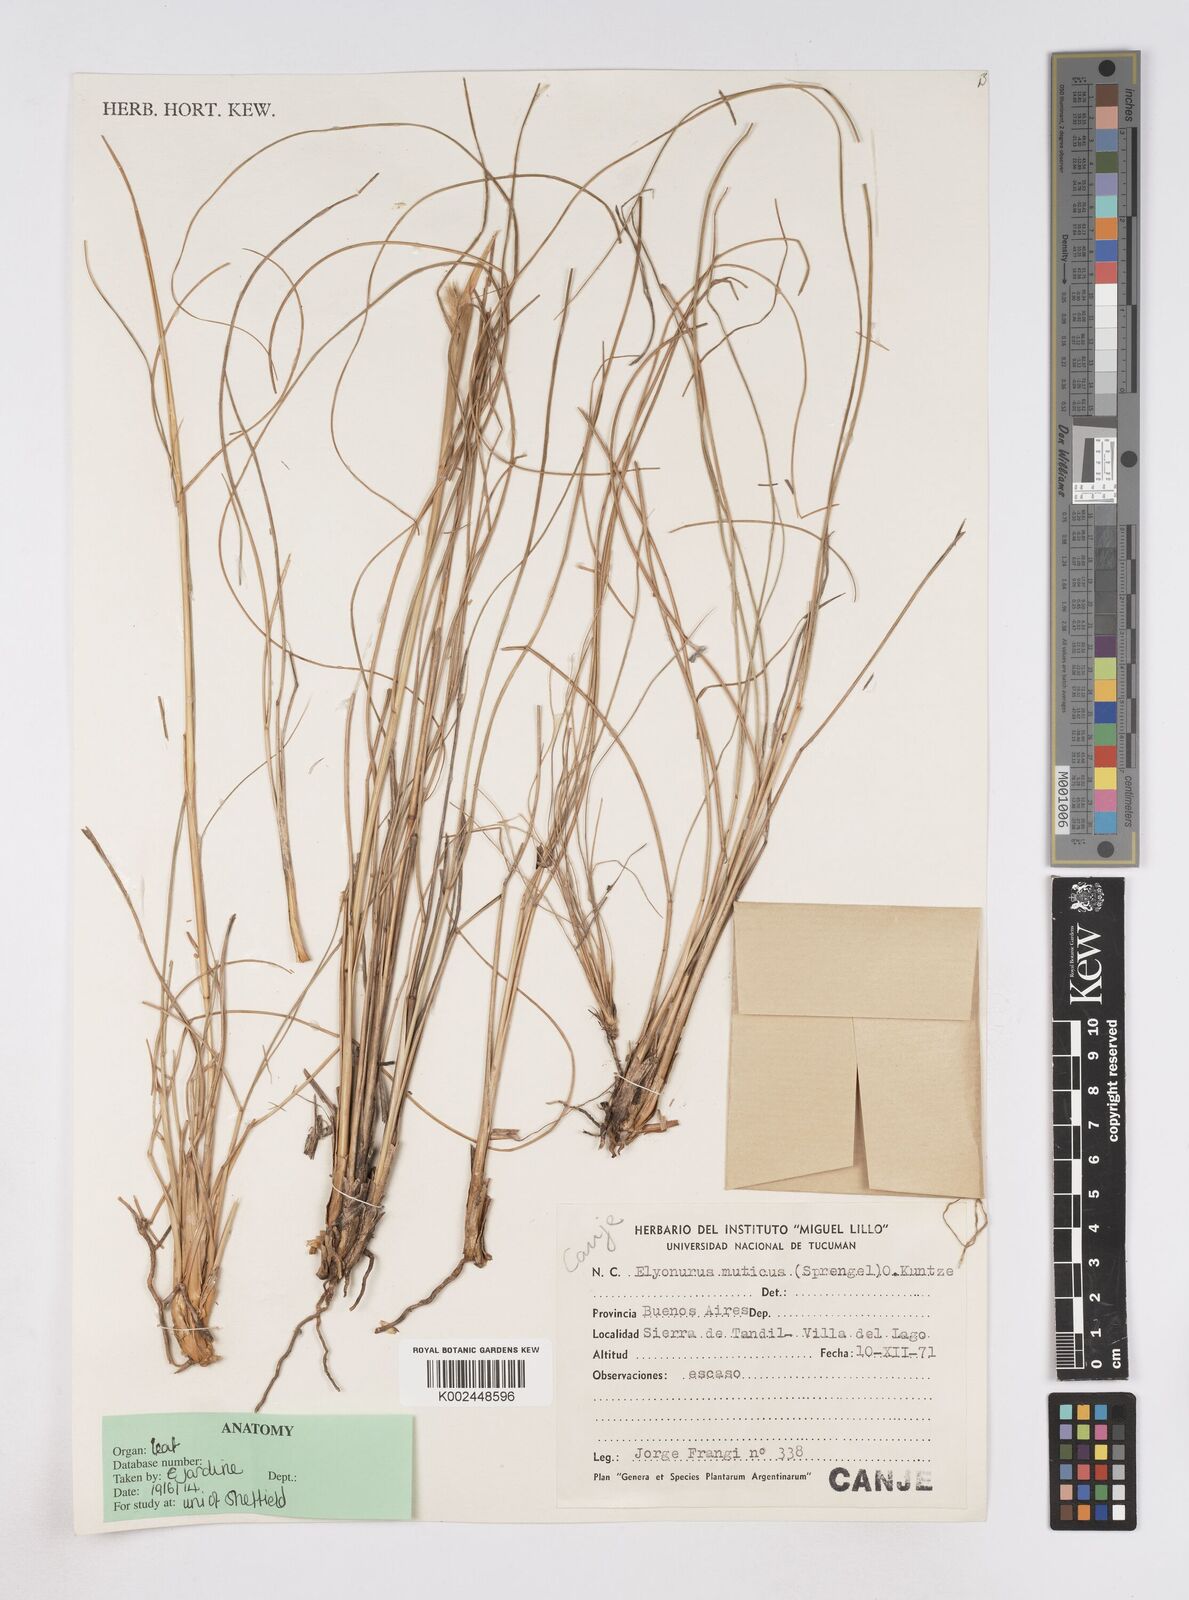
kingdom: Plantae
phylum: Tracheophyta
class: Liliopsida
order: Poales
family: Poaceae
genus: Elionurus
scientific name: Elionurus muticus
